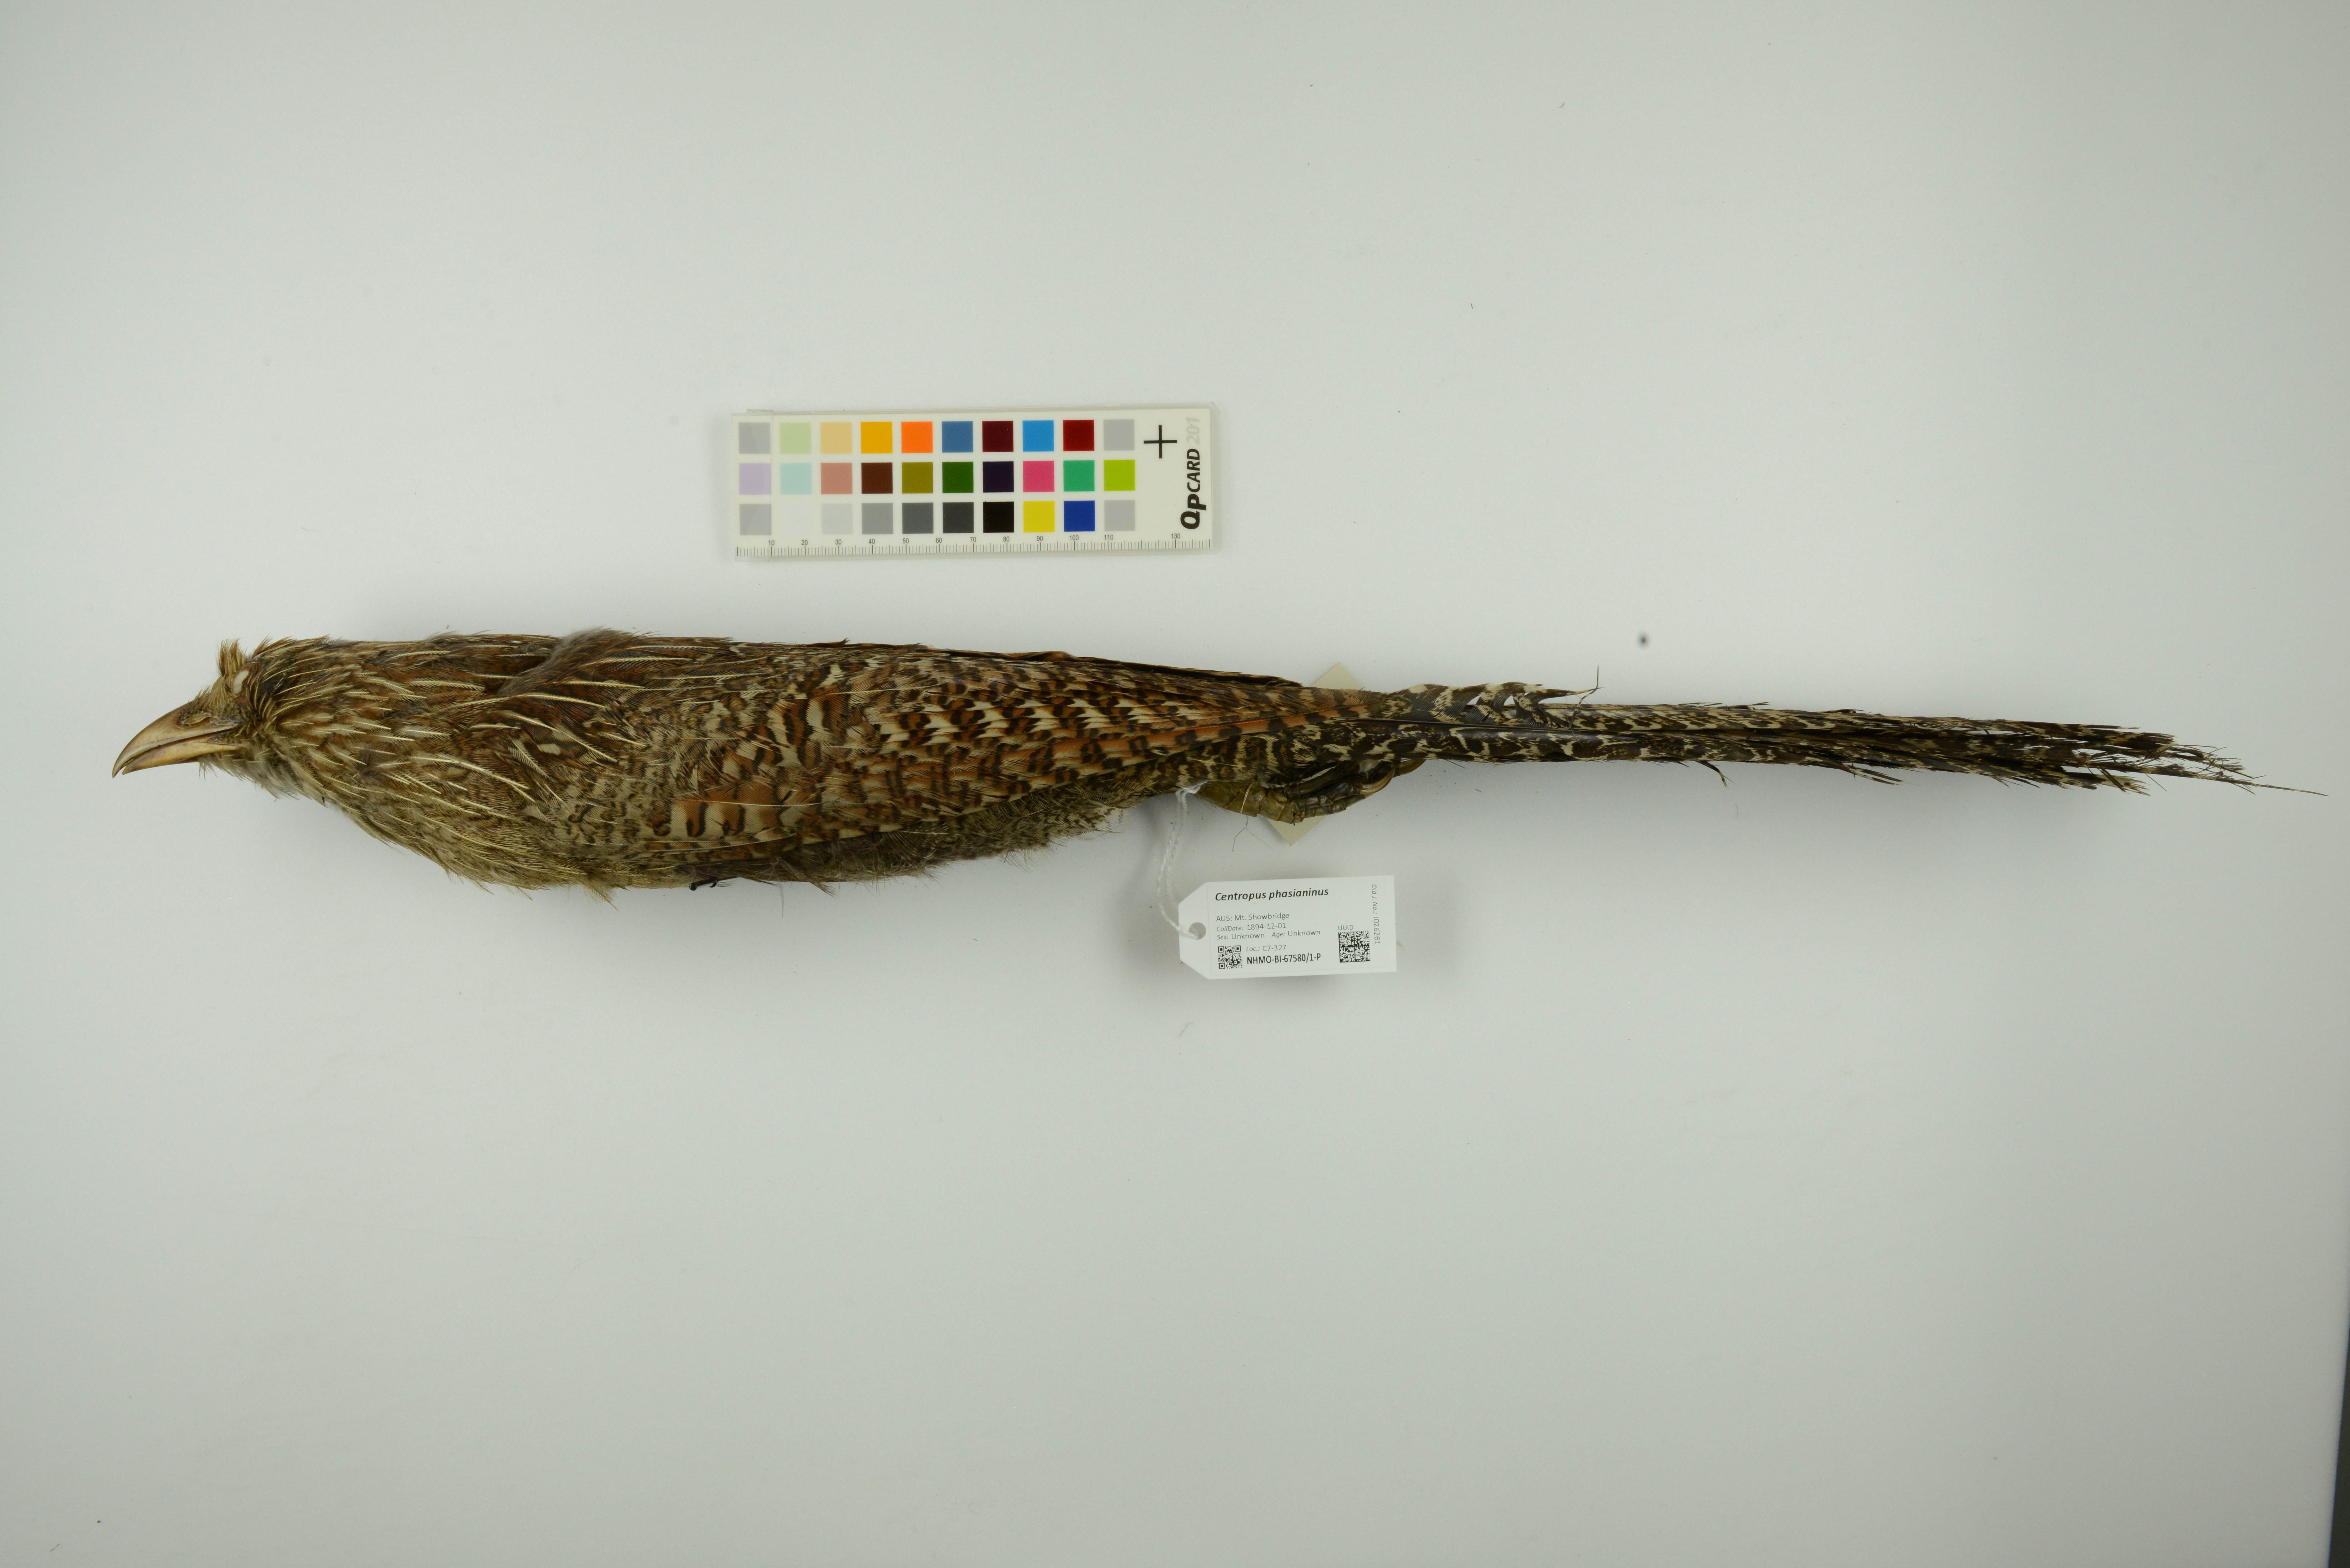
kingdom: Animalia
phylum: Chordata
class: Aves
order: Cuculiformes
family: Cuculidae
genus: Centropus
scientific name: Centropus phasianinus
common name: Pheasant coucal
